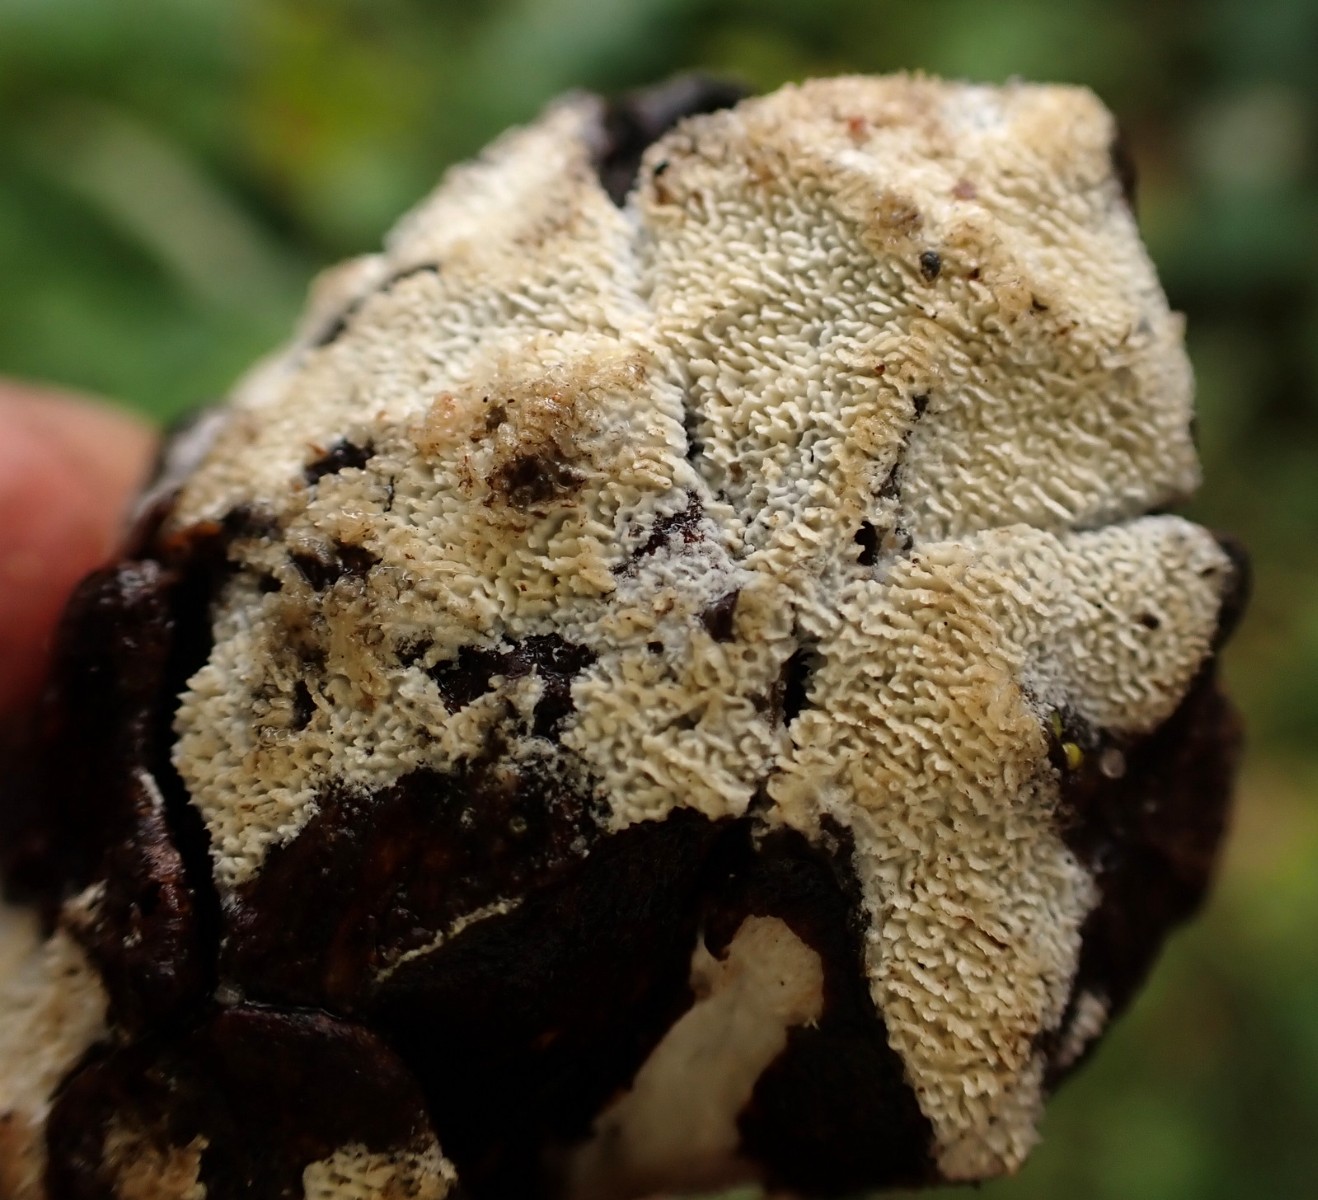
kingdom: Fungi
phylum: Basidiomycota
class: Agaricomycetes
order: Polyporales
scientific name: Polyporales
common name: poresvampordenen
